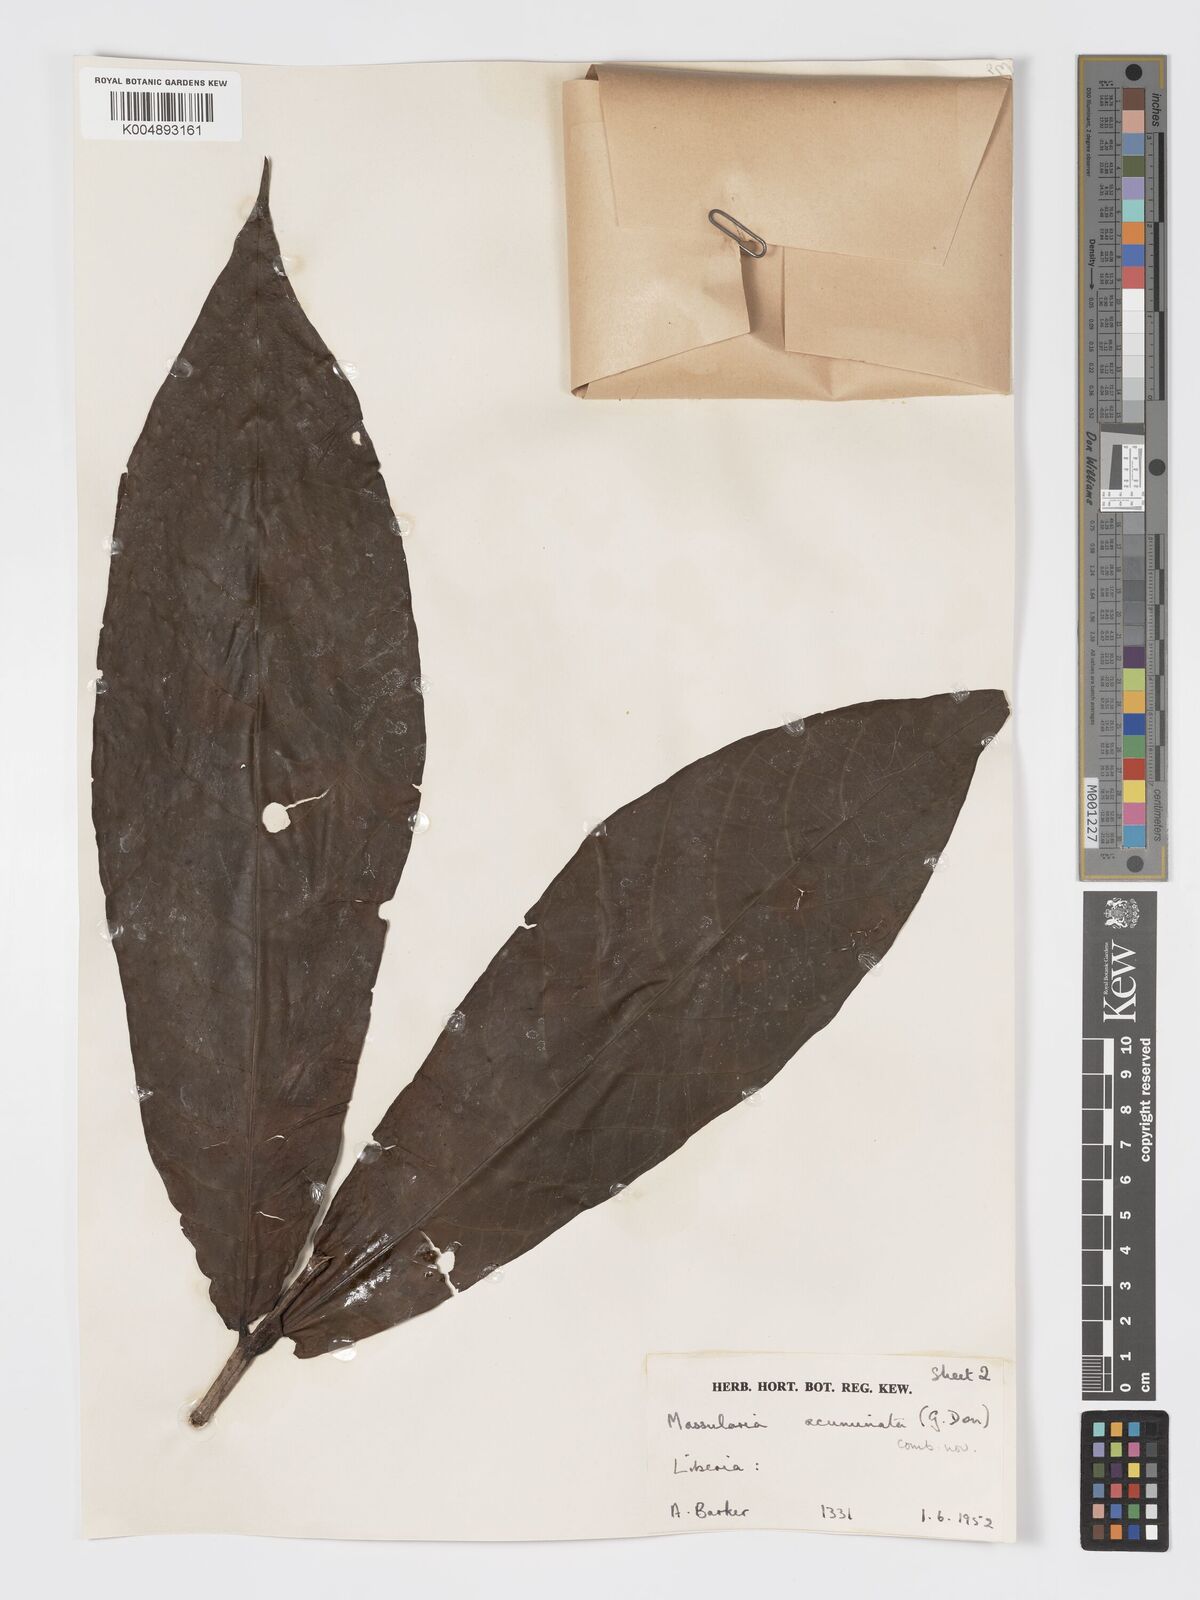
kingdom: Plantae
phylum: Tracheophyta
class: Magnoliopsida
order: Gentianales
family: Rubiaceae
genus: Massularia
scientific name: Massularia acuminata
